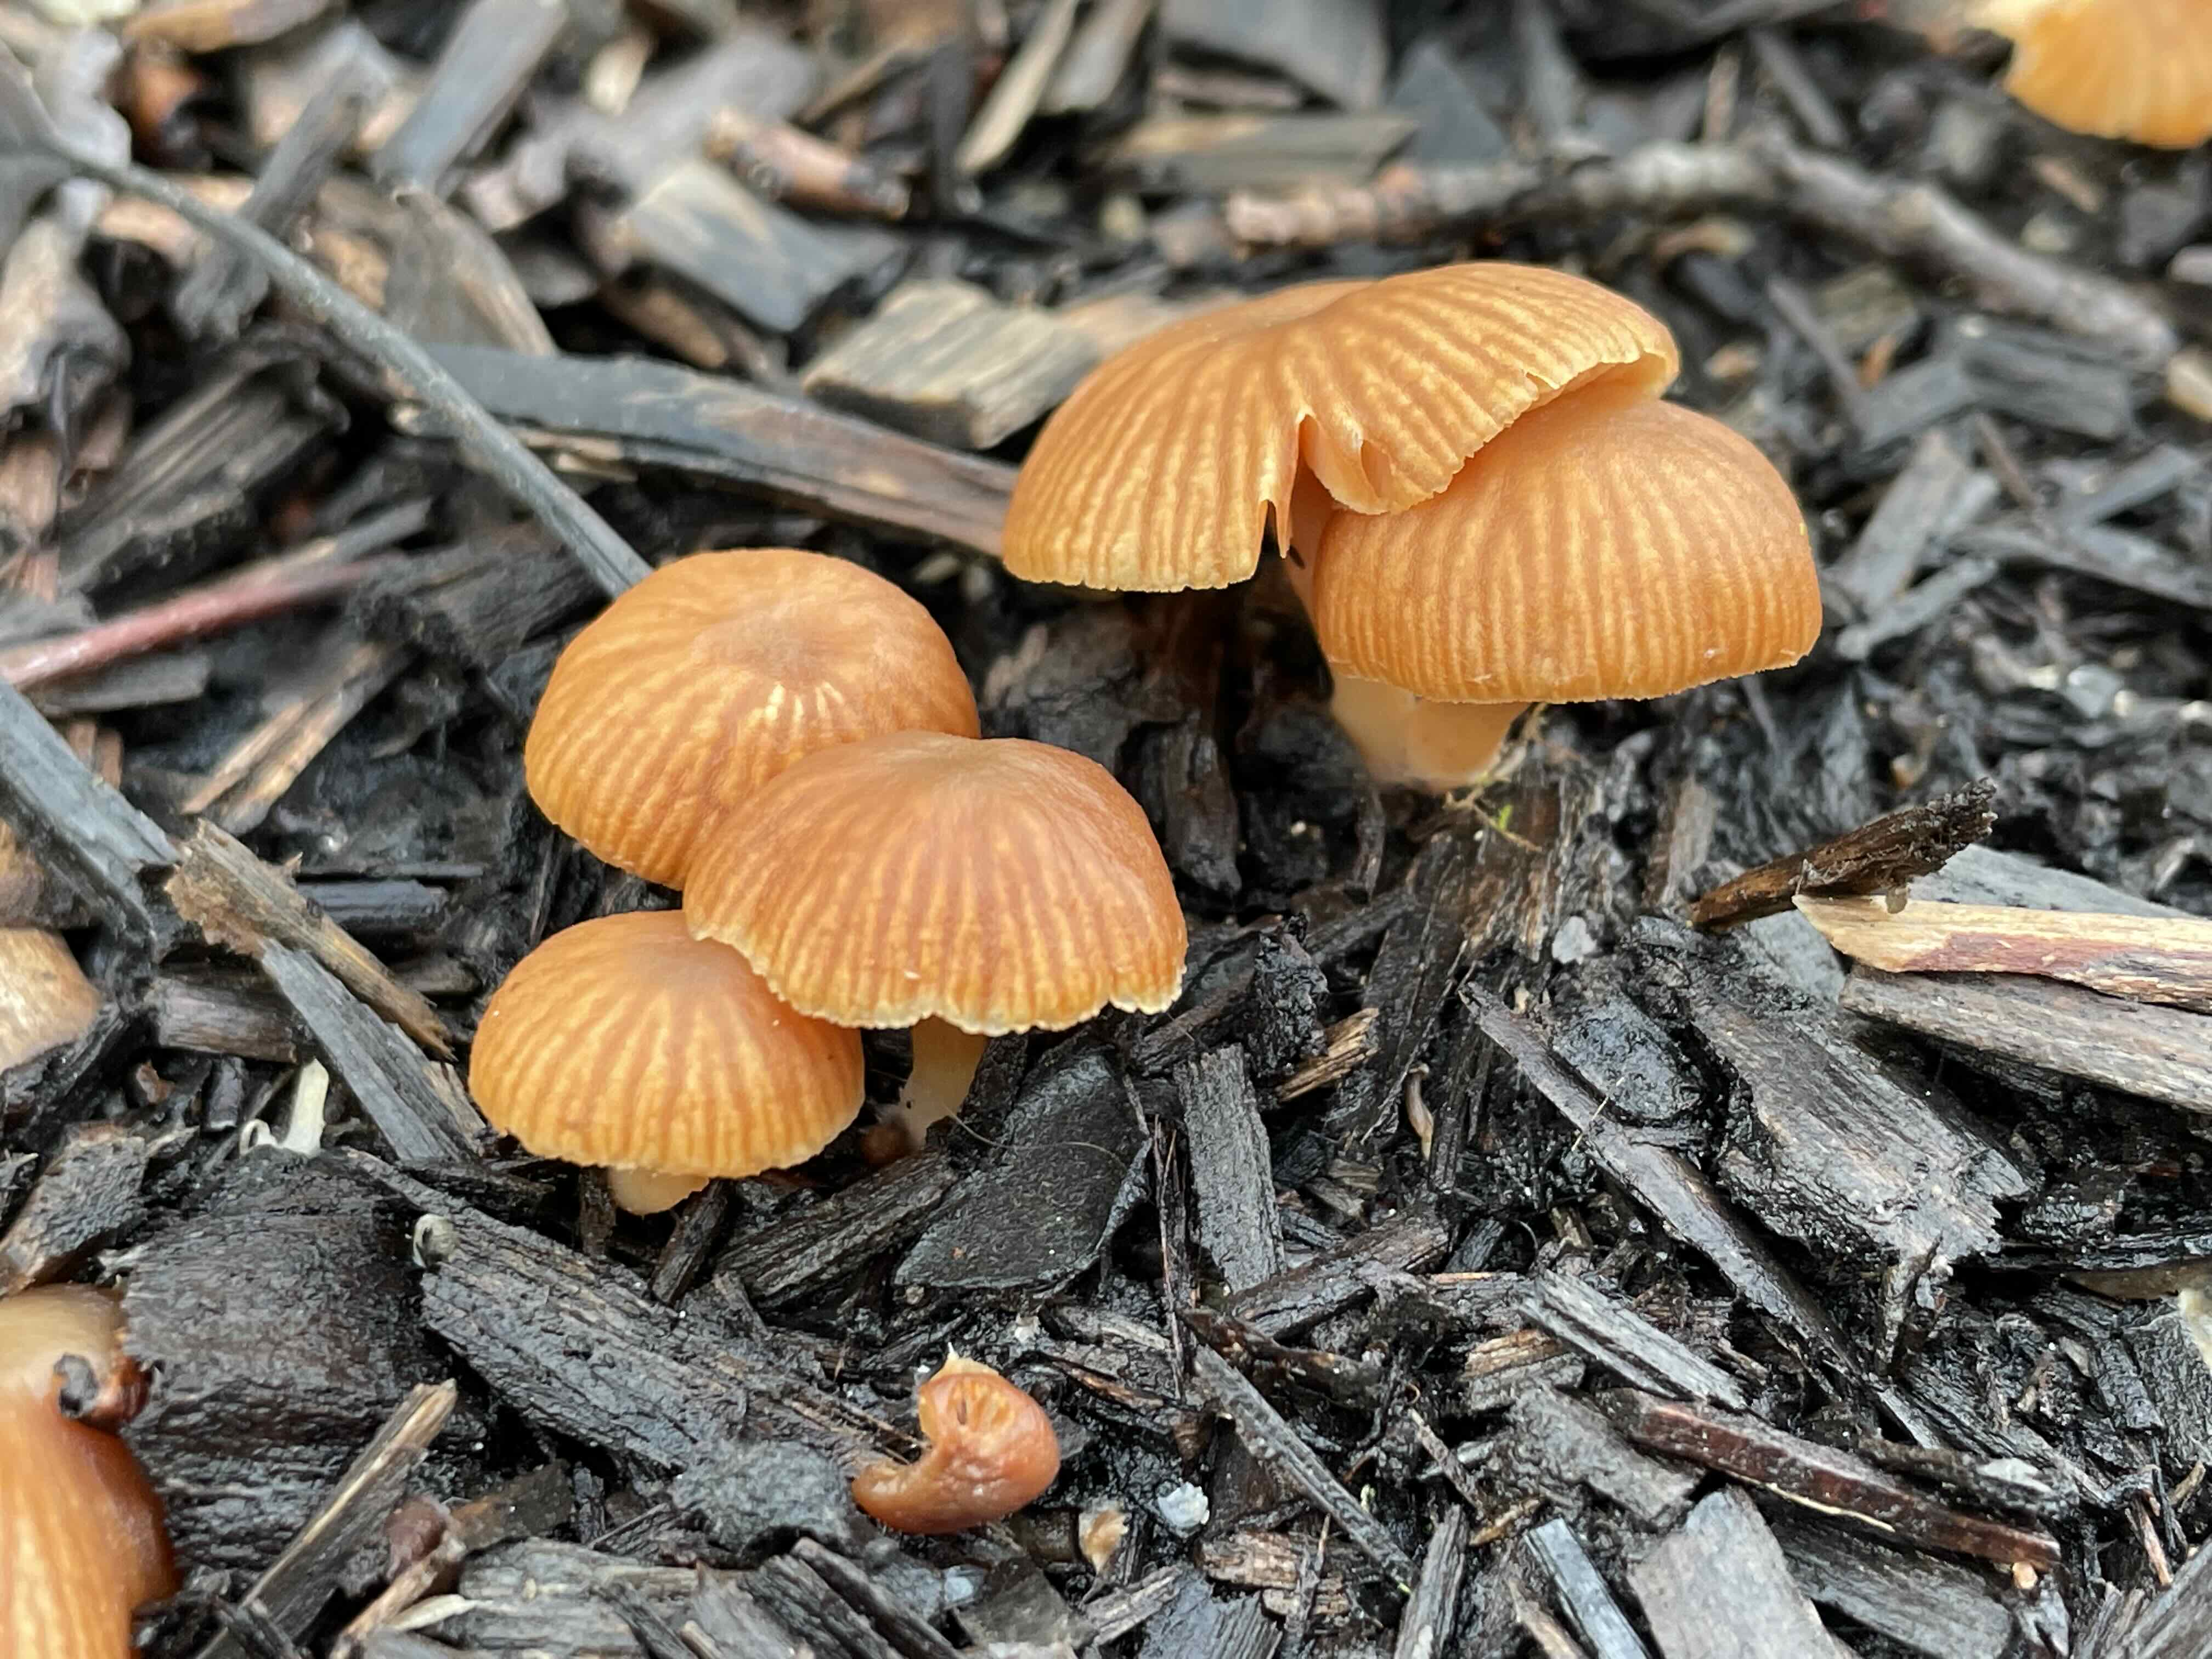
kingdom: Fungi
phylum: Basidiomycota
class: Agaricomycetes
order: Agaricales
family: Tubariaceae
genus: Tubaria
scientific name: Tubaria furfuracea
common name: kliddet fnughat
